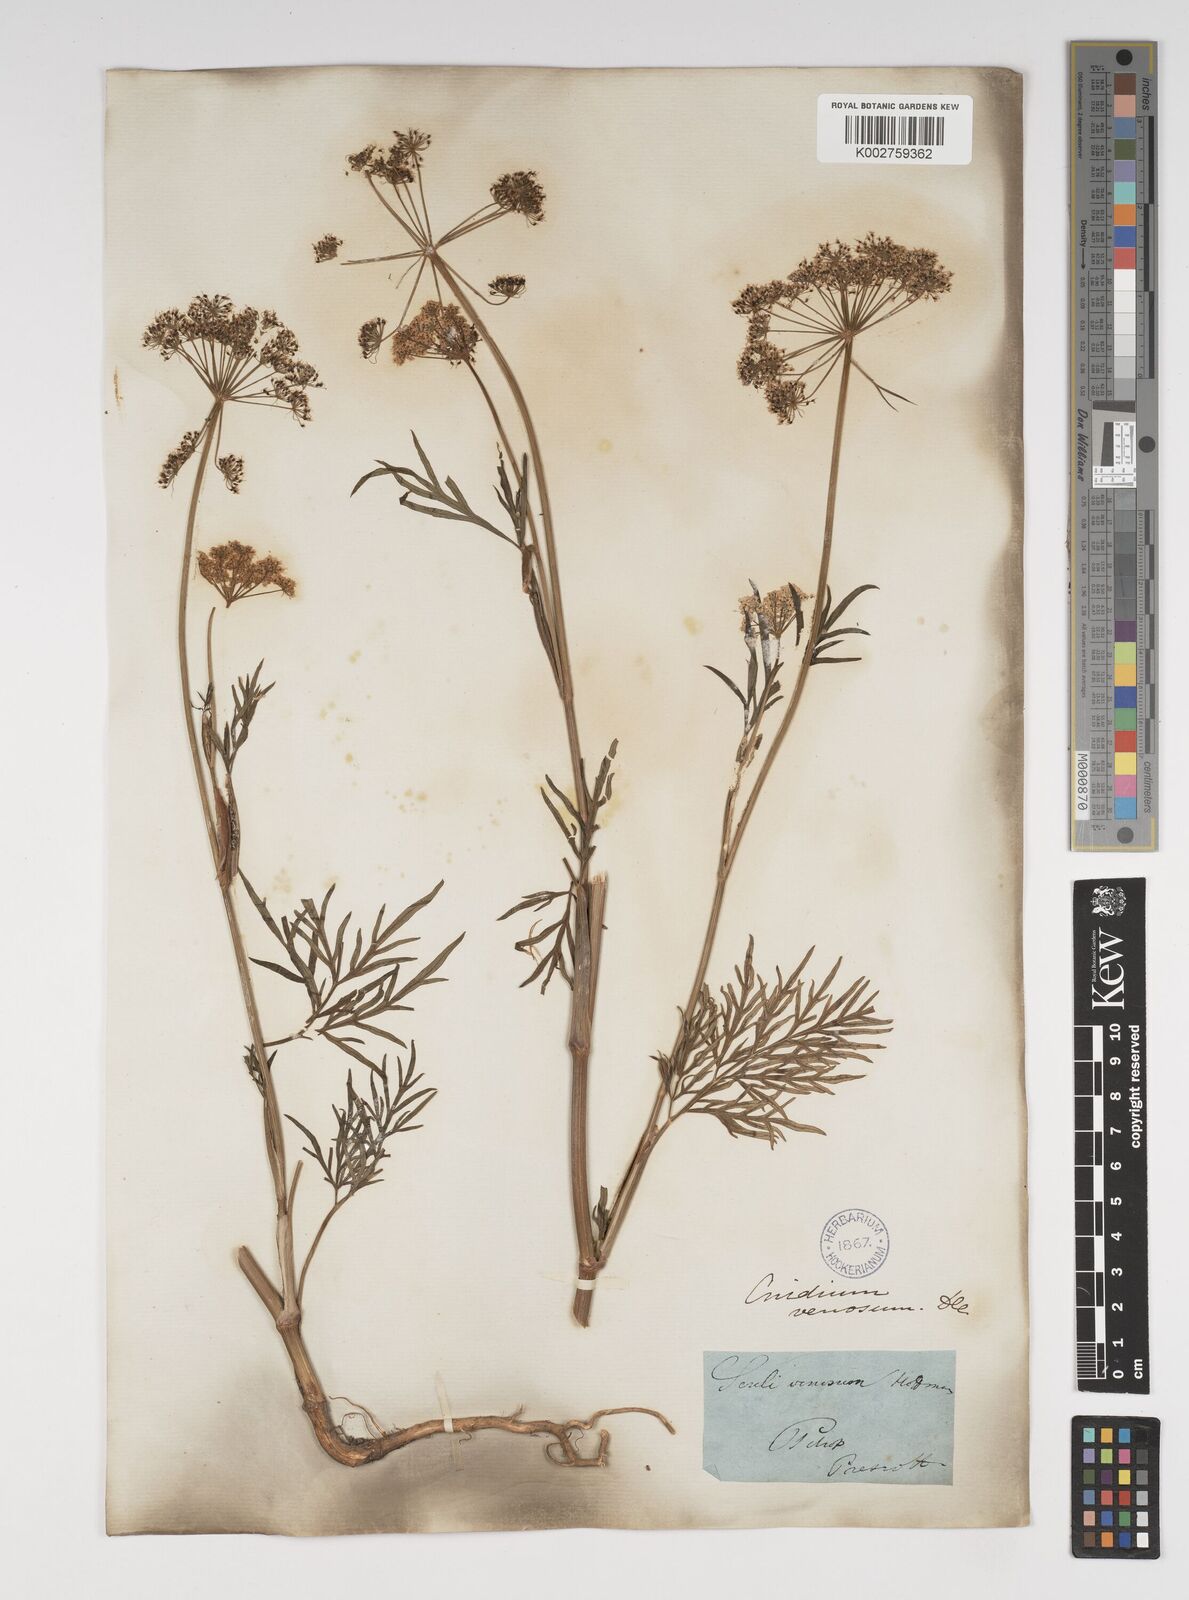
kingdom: Plantae
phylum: Tracheophyta
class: Magnoliopsida
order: Apiales
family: Apiaceae
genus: Kadenia
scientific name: Kadenia dubia
